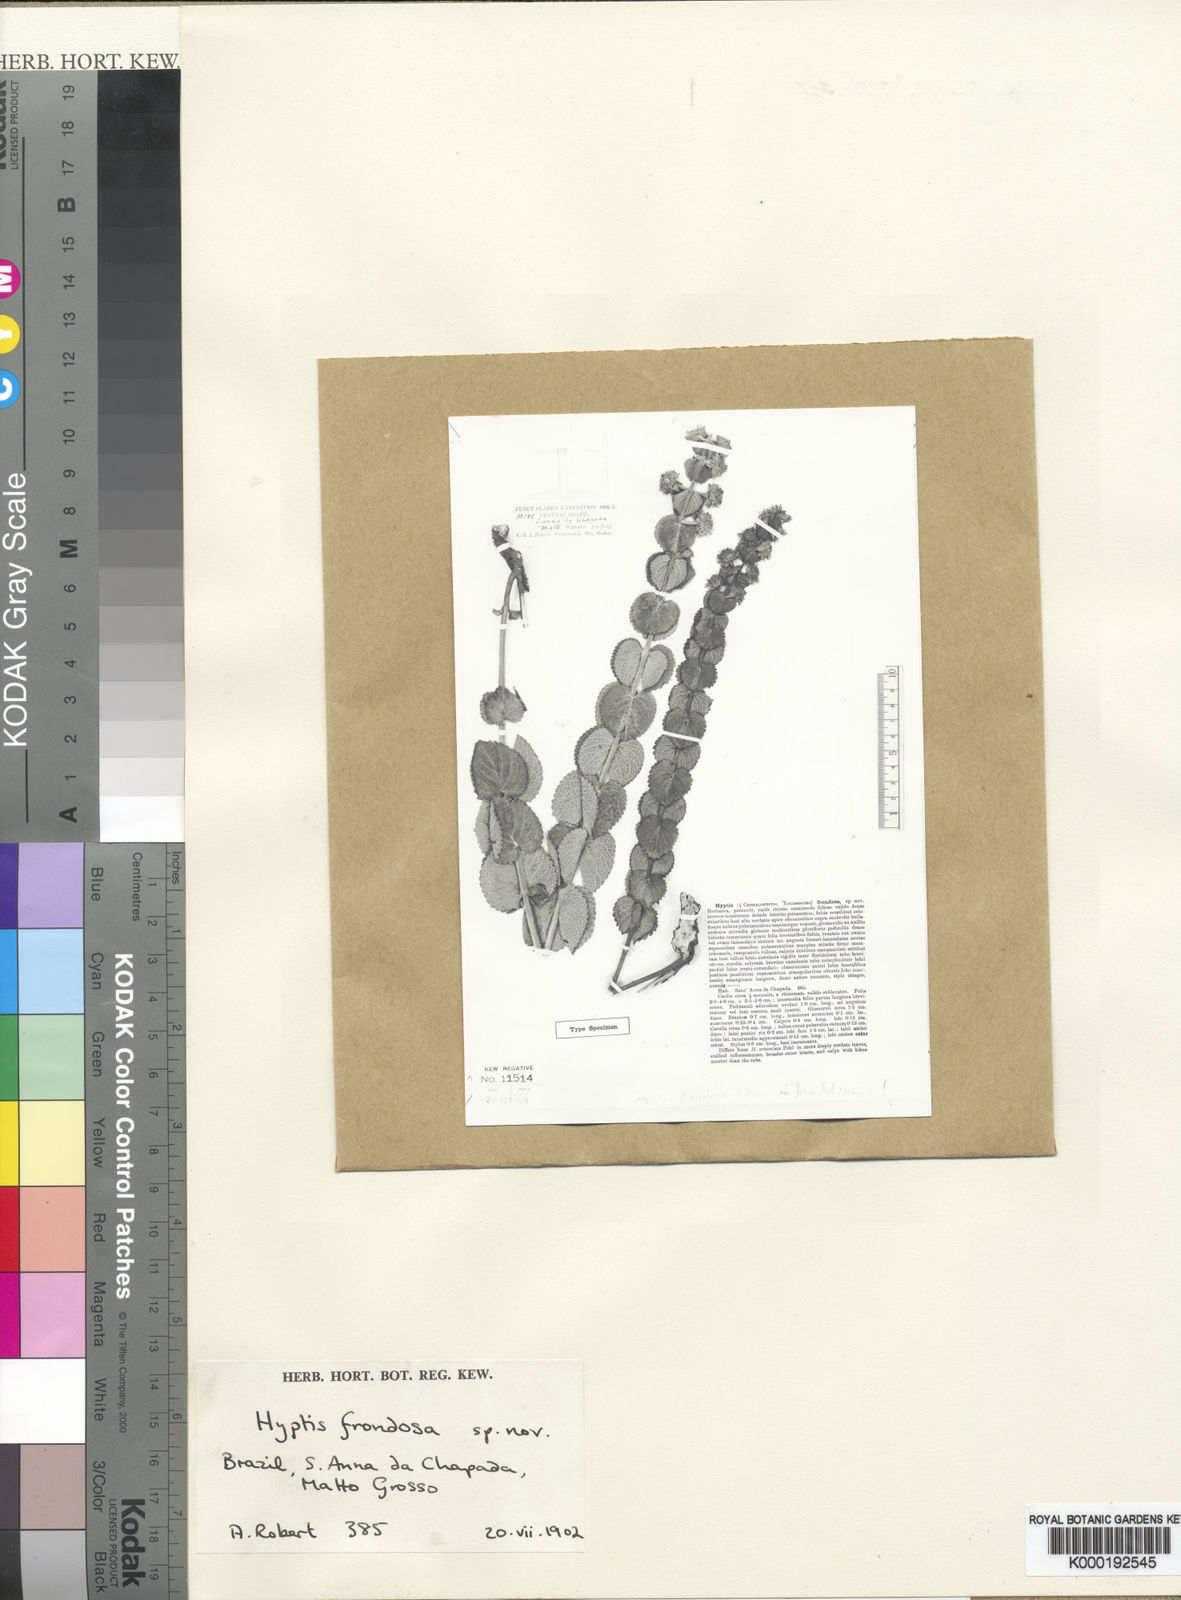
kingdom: Plantae
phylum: Tracheophyta
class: Magnoliopsida
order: Lamiales
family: Lamiaceae
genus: Hyptis
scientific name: Hyptis
